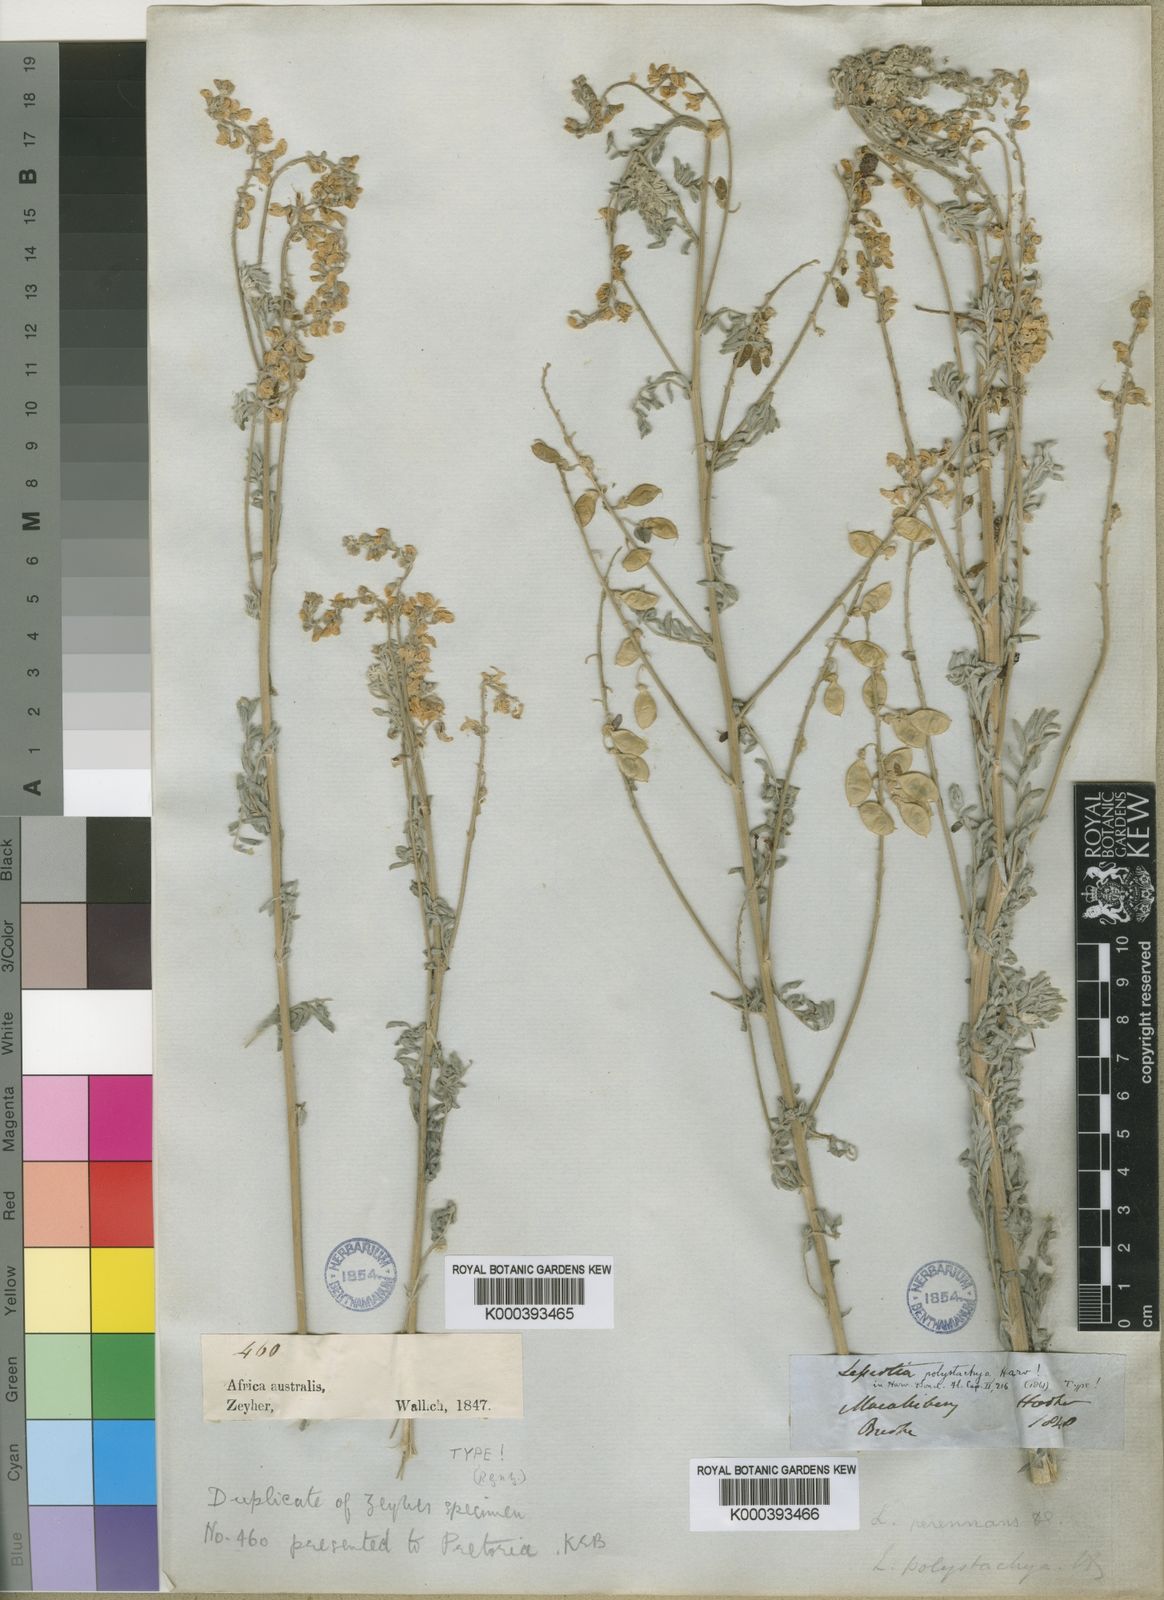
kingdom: Plantae
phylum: Tracheophyta
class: Magnoliopsida
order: Fabales
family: Fabaceae
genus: Lessertia
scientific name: Lessertia perennans
